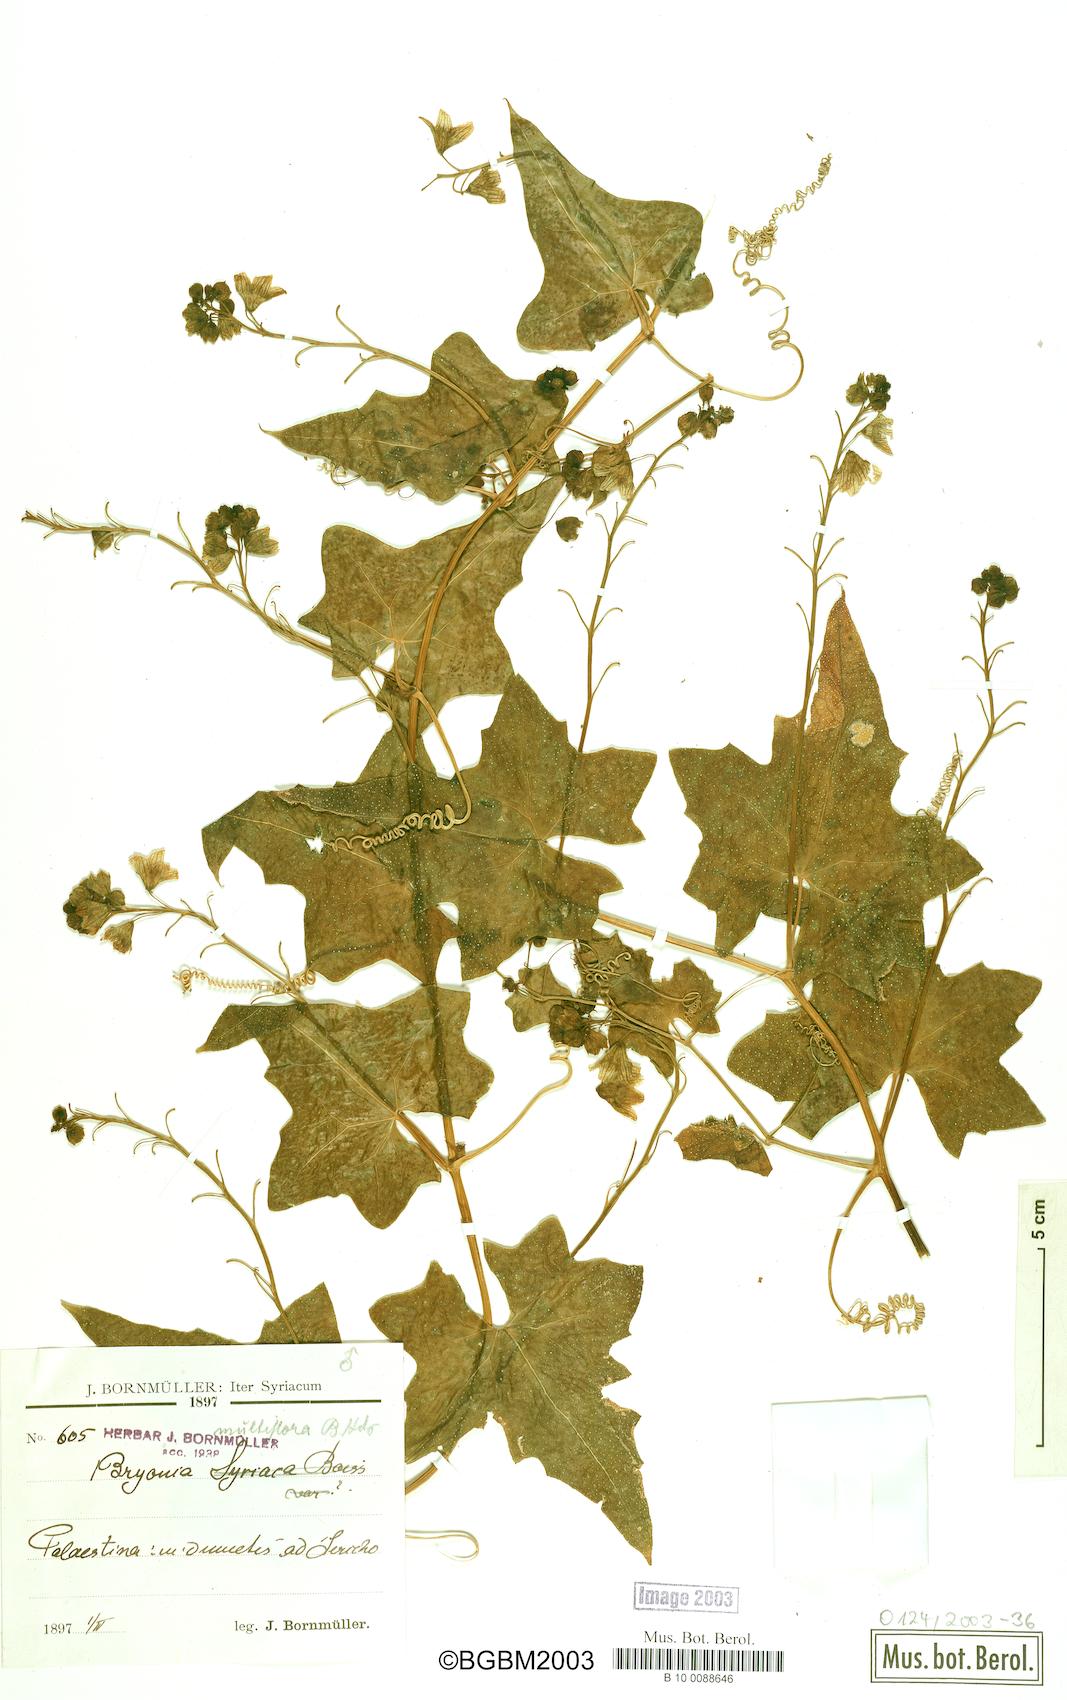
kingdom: Plantae
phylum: Tracheophyta
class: Magnoliopsida
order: Cucurbitales
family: Cucurbitaceae
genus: Bryonia
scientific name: Bryonia multiflora
